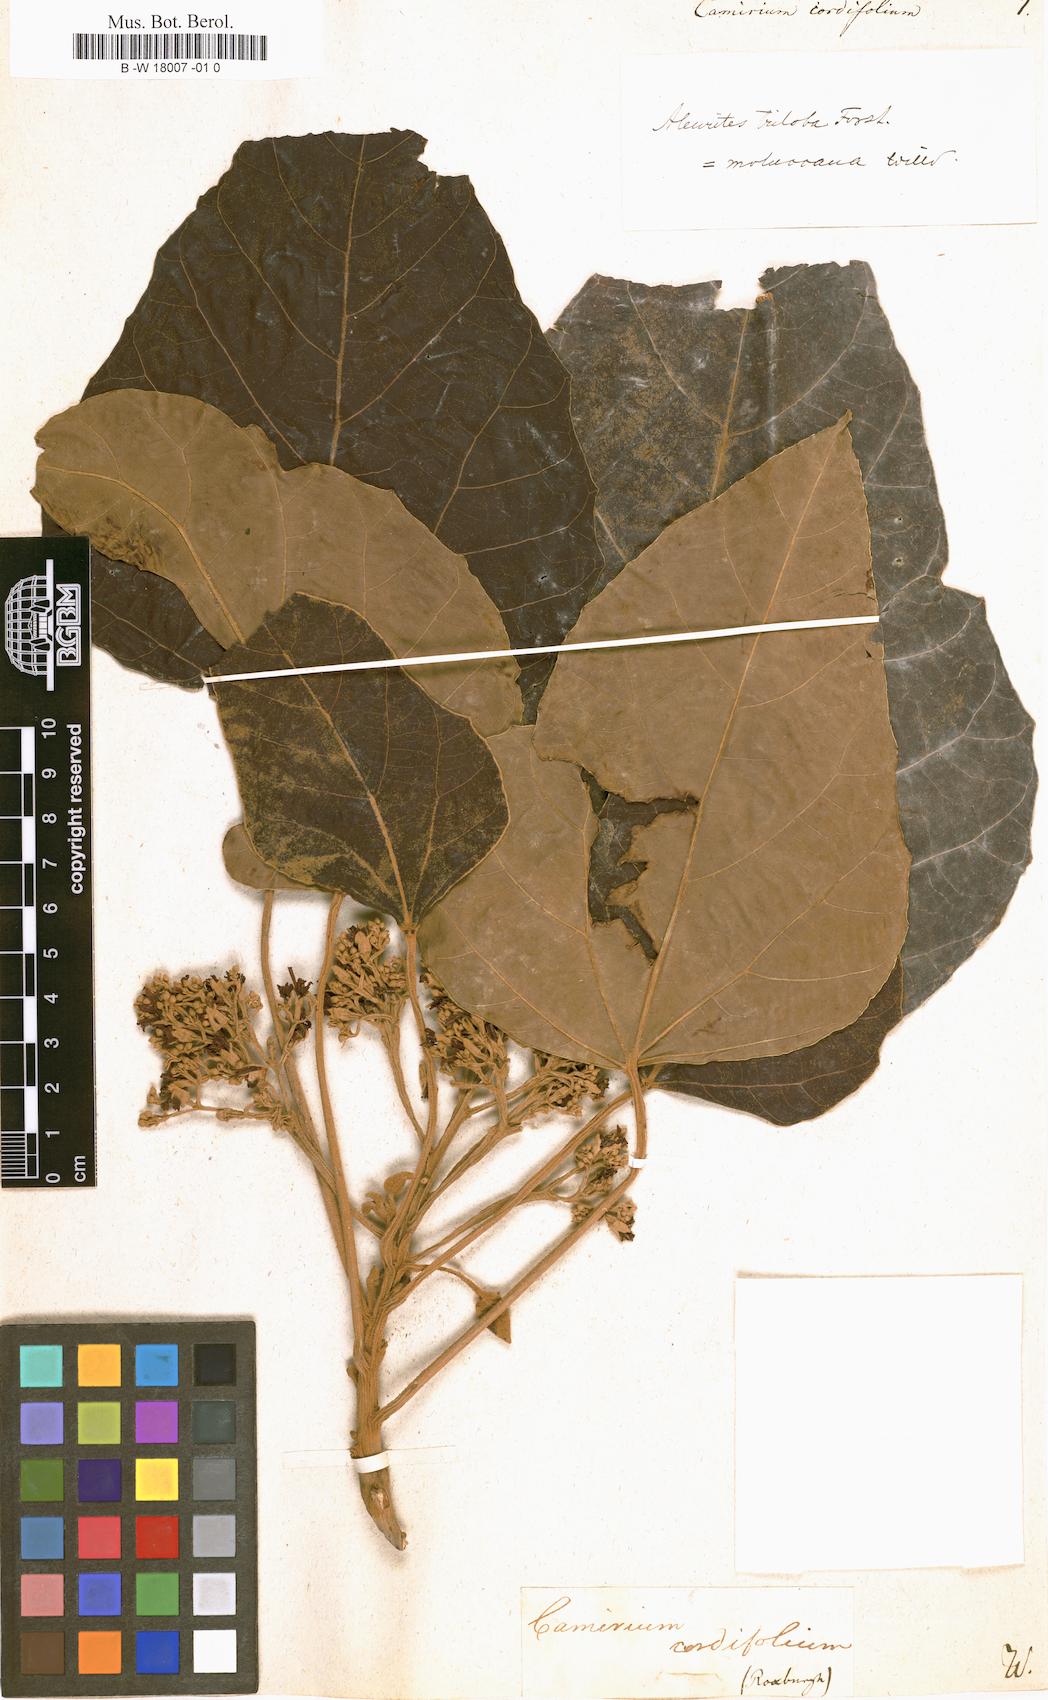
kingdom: Plantae
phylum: Tracheophyta
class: Magnoliopsida
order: Malpighiales
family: Euphorbiaceae
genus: Aleurites
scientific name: Aleurites moluccanus
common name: Candlenut tree
